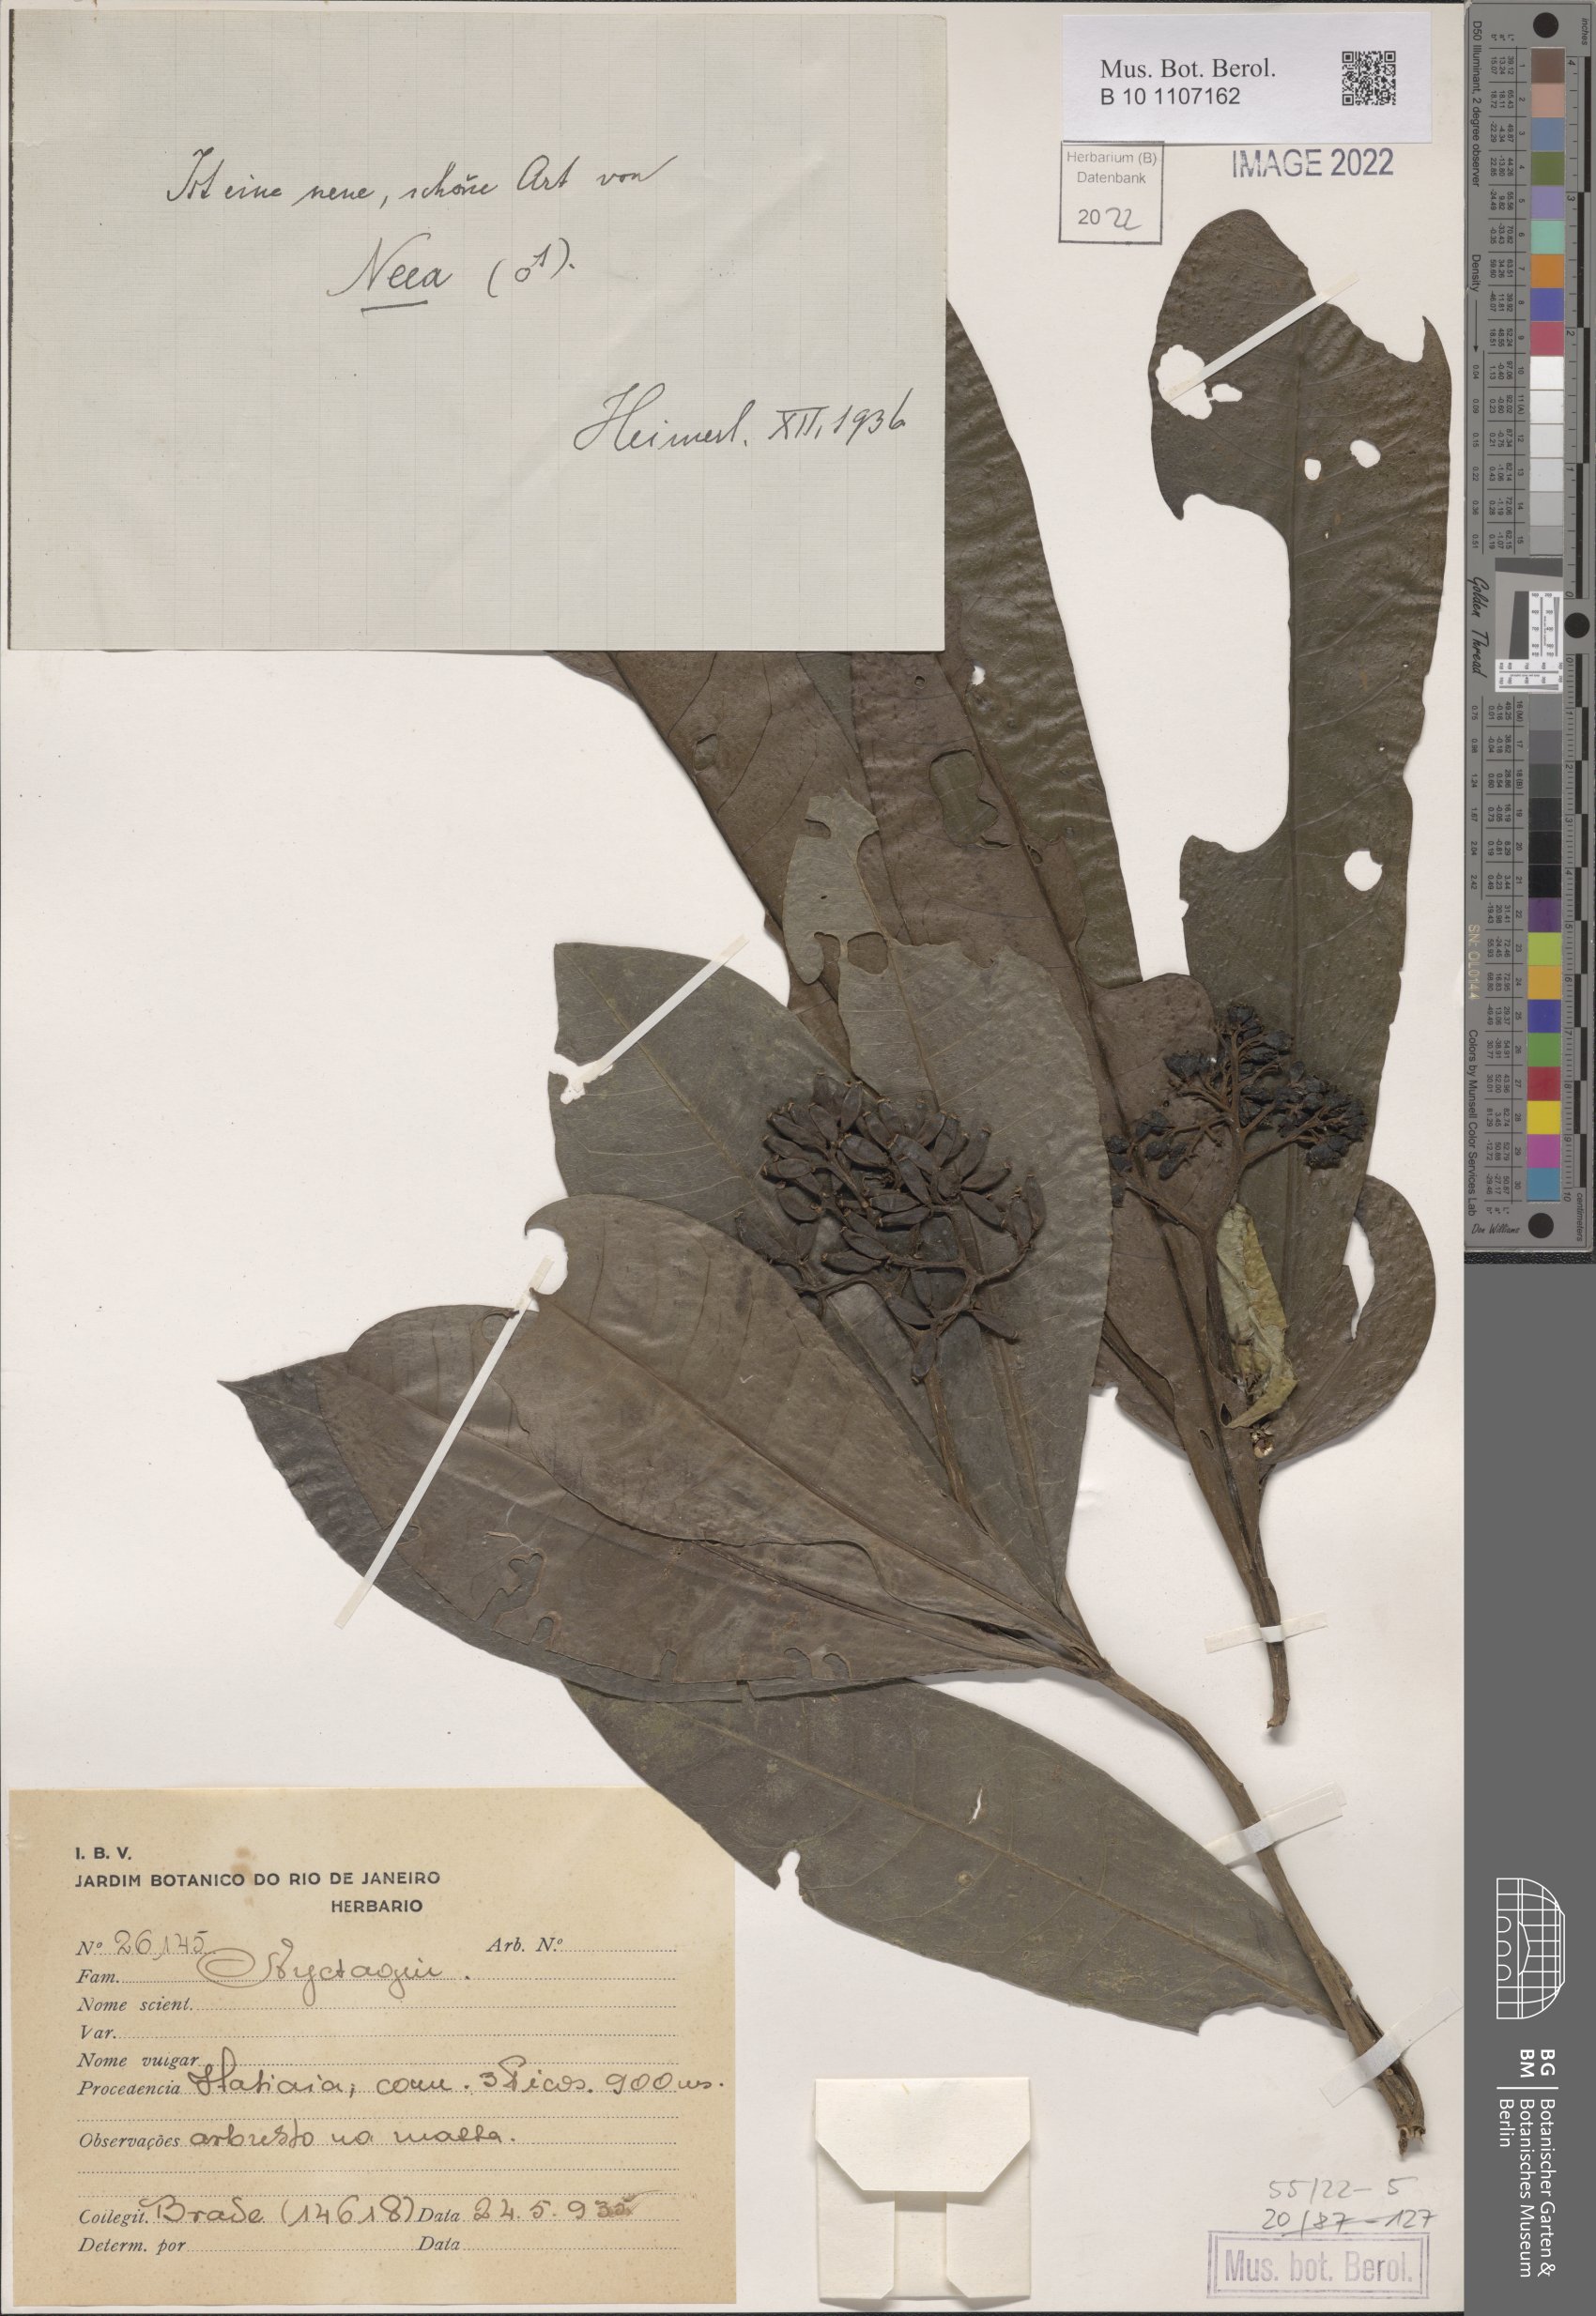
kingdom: Plantae
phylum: Tracheophyta
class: Magnoliopsida
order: Caryophyllales
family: Nyctaginaceae
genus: Neea
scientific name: Neea
